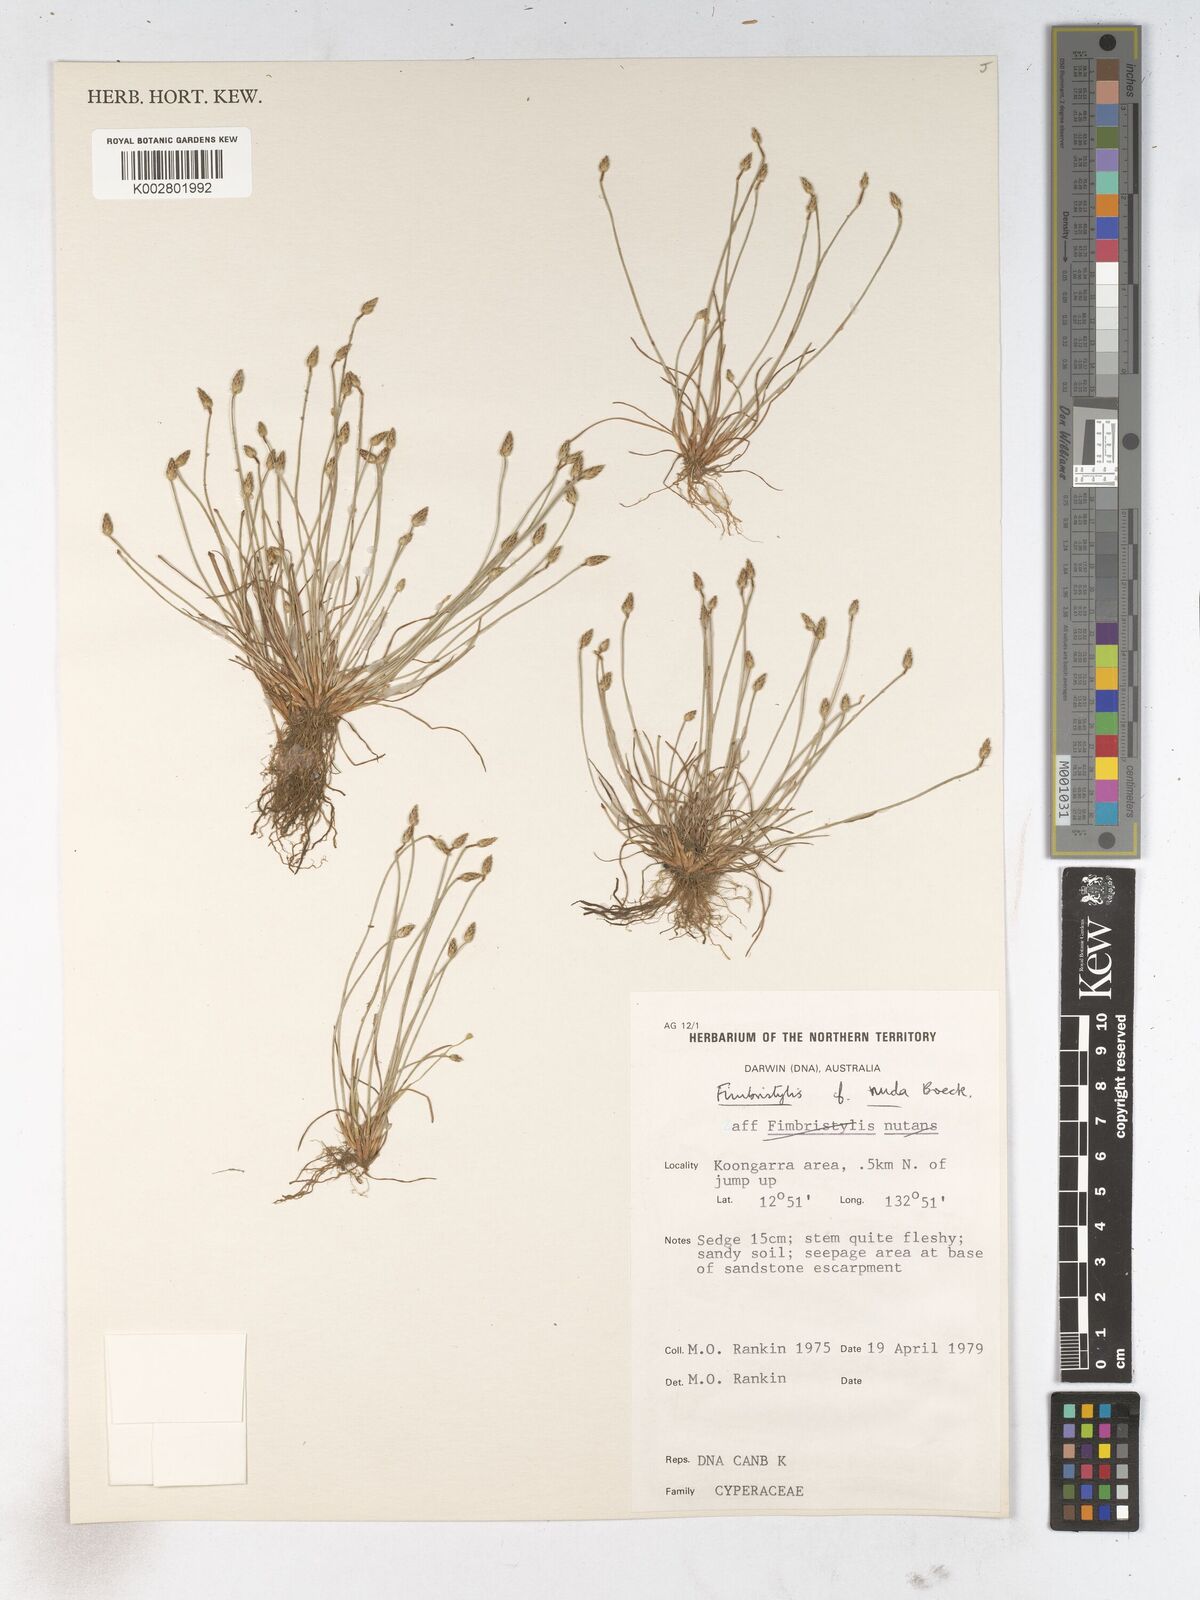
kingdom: Plantae
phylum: Tracheophyta
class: Liliopsida
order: Poales
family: Cyperaceae
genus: Fimbristylis
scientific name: Fimbristylis nuda
